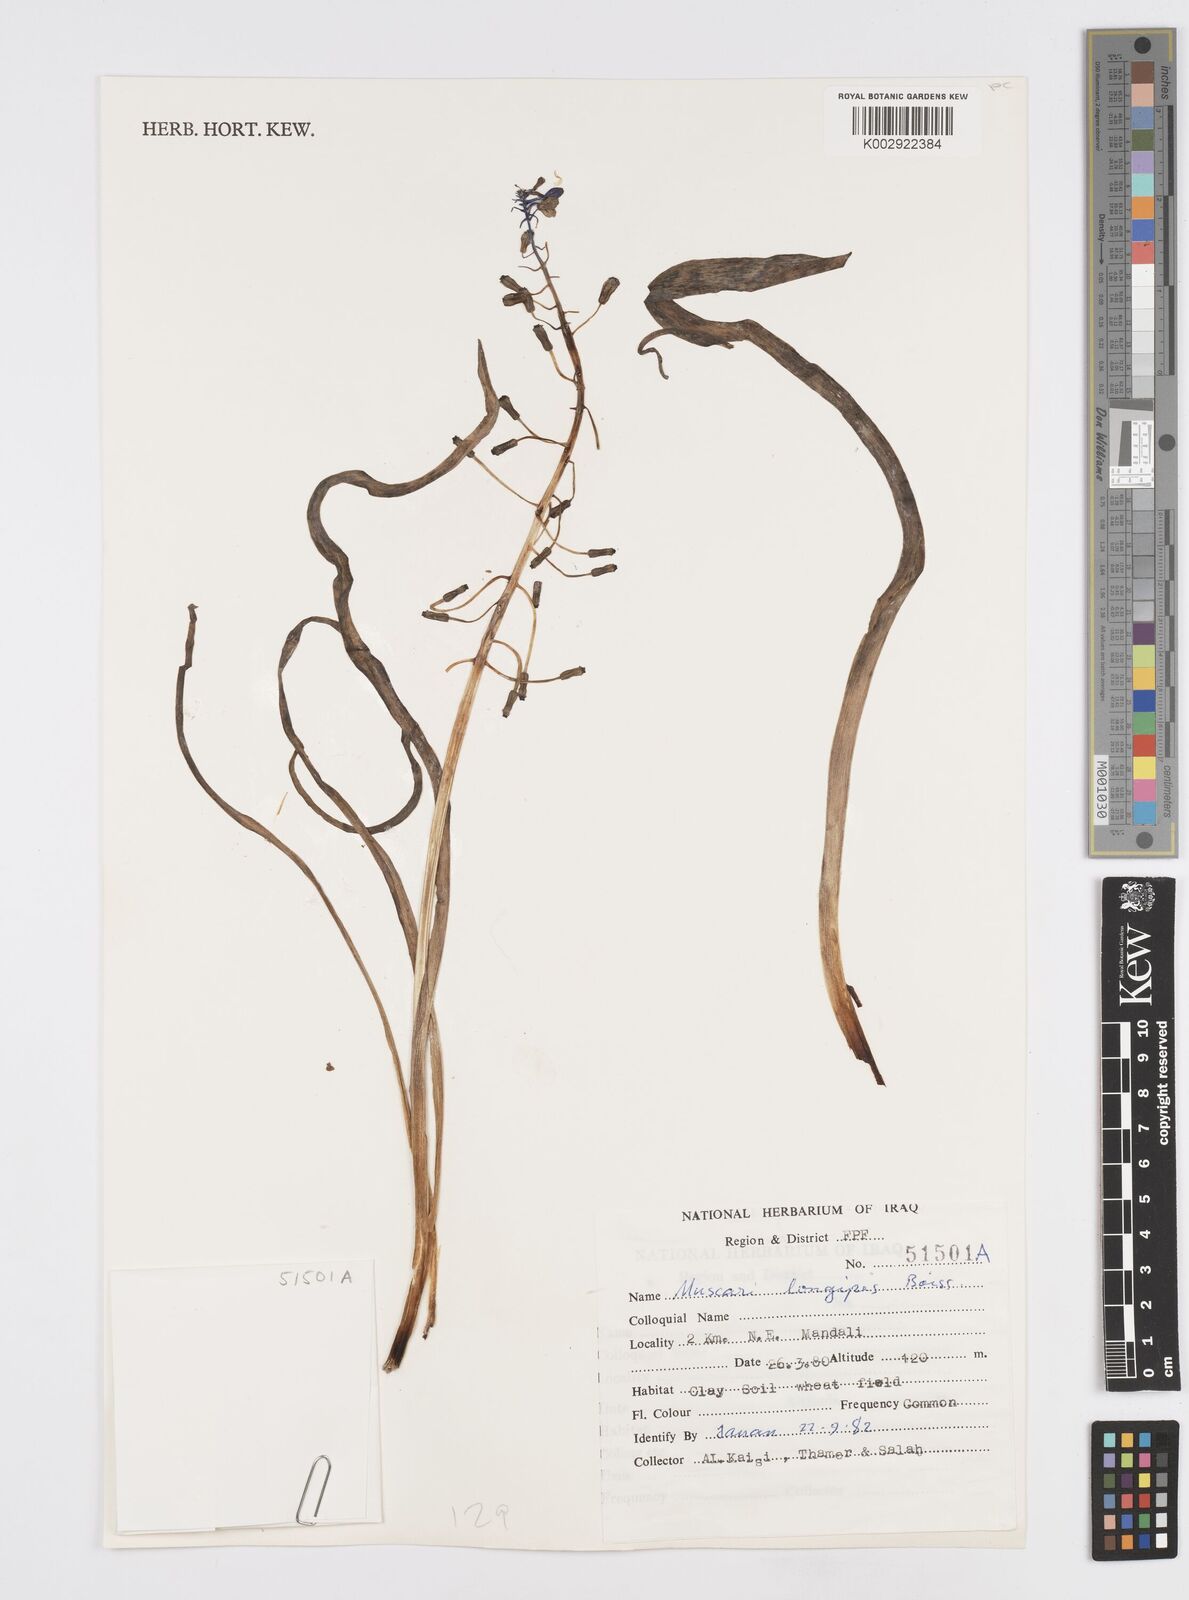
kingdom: Plantae
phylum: Tracheophyta
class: Liliopsida
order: Asparagales
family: Asparagaceae
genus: Muscari
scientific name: Muscari longipes
